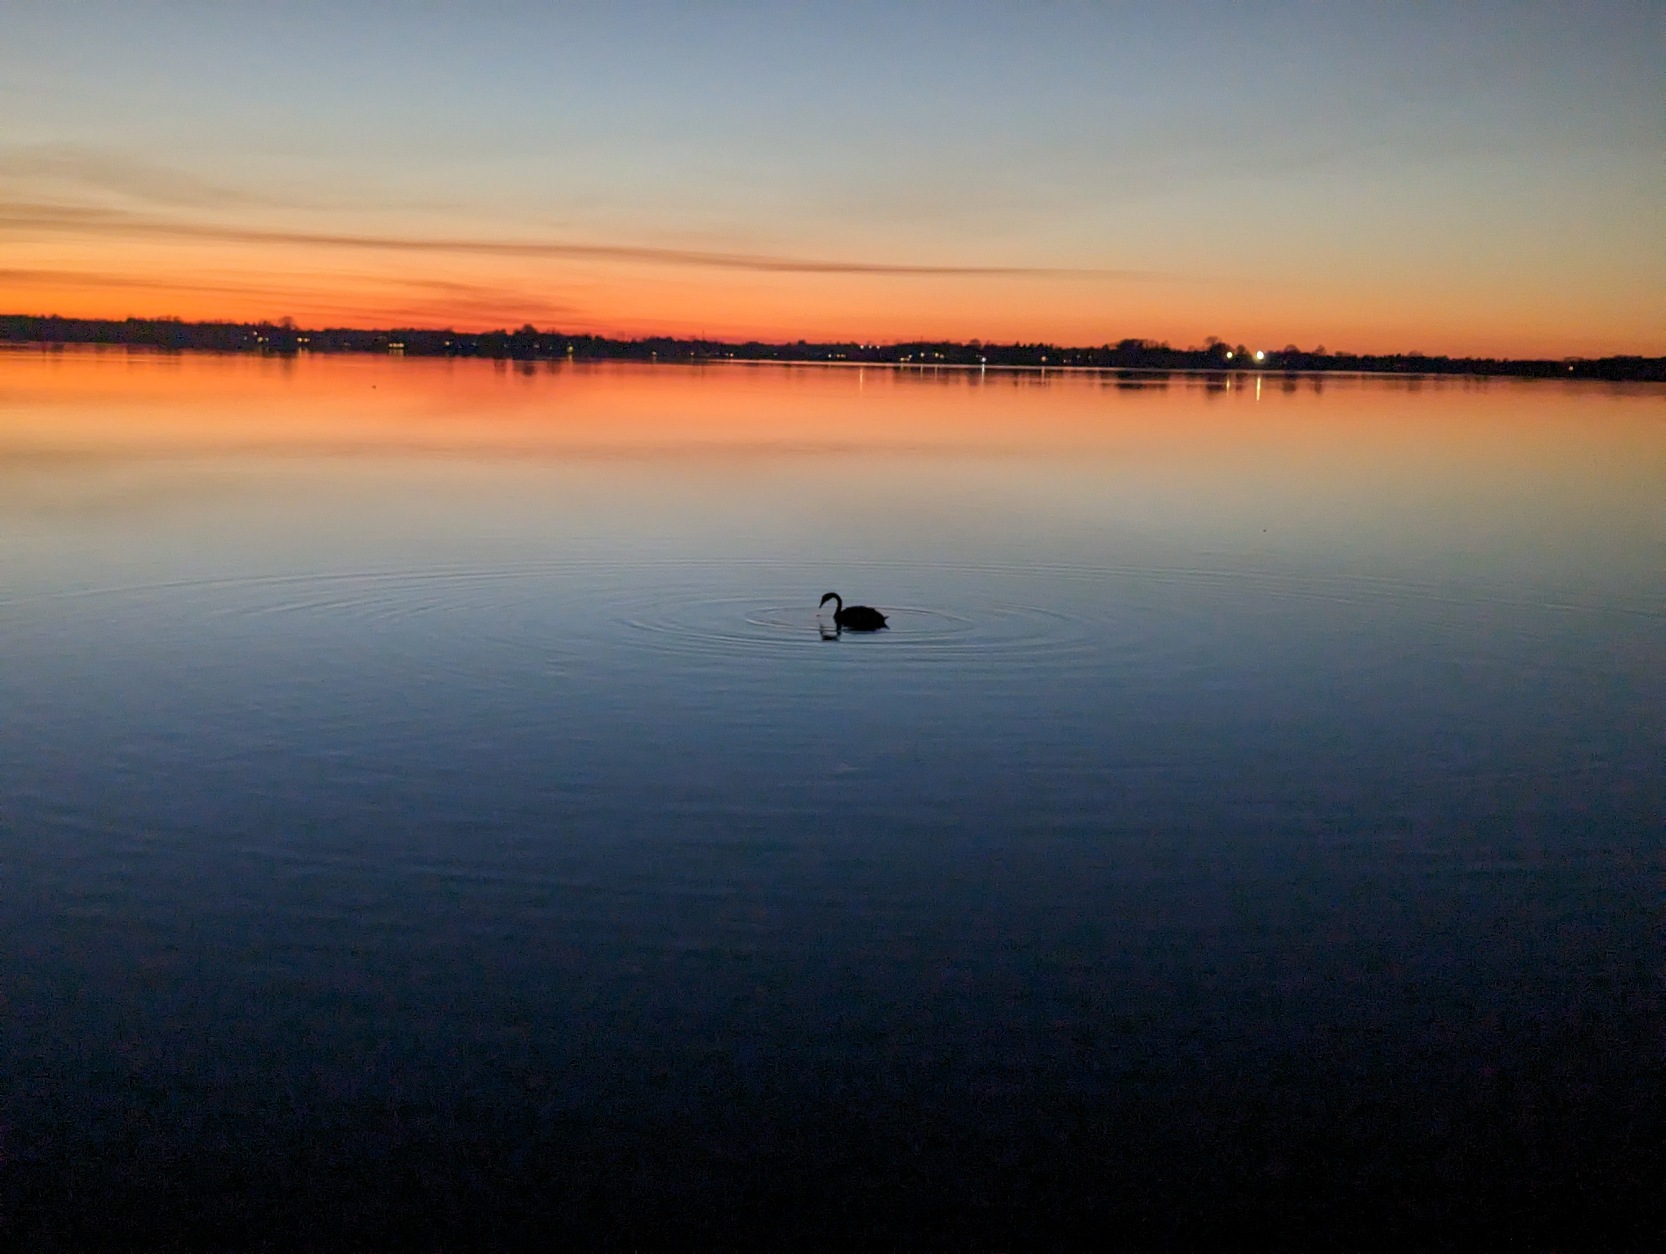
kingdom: Animalia
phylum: Chordata
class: Aves
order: Anseriformes
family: Anatidae
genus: Cygnus
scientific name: Cygnus olor
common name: Knopsvane
